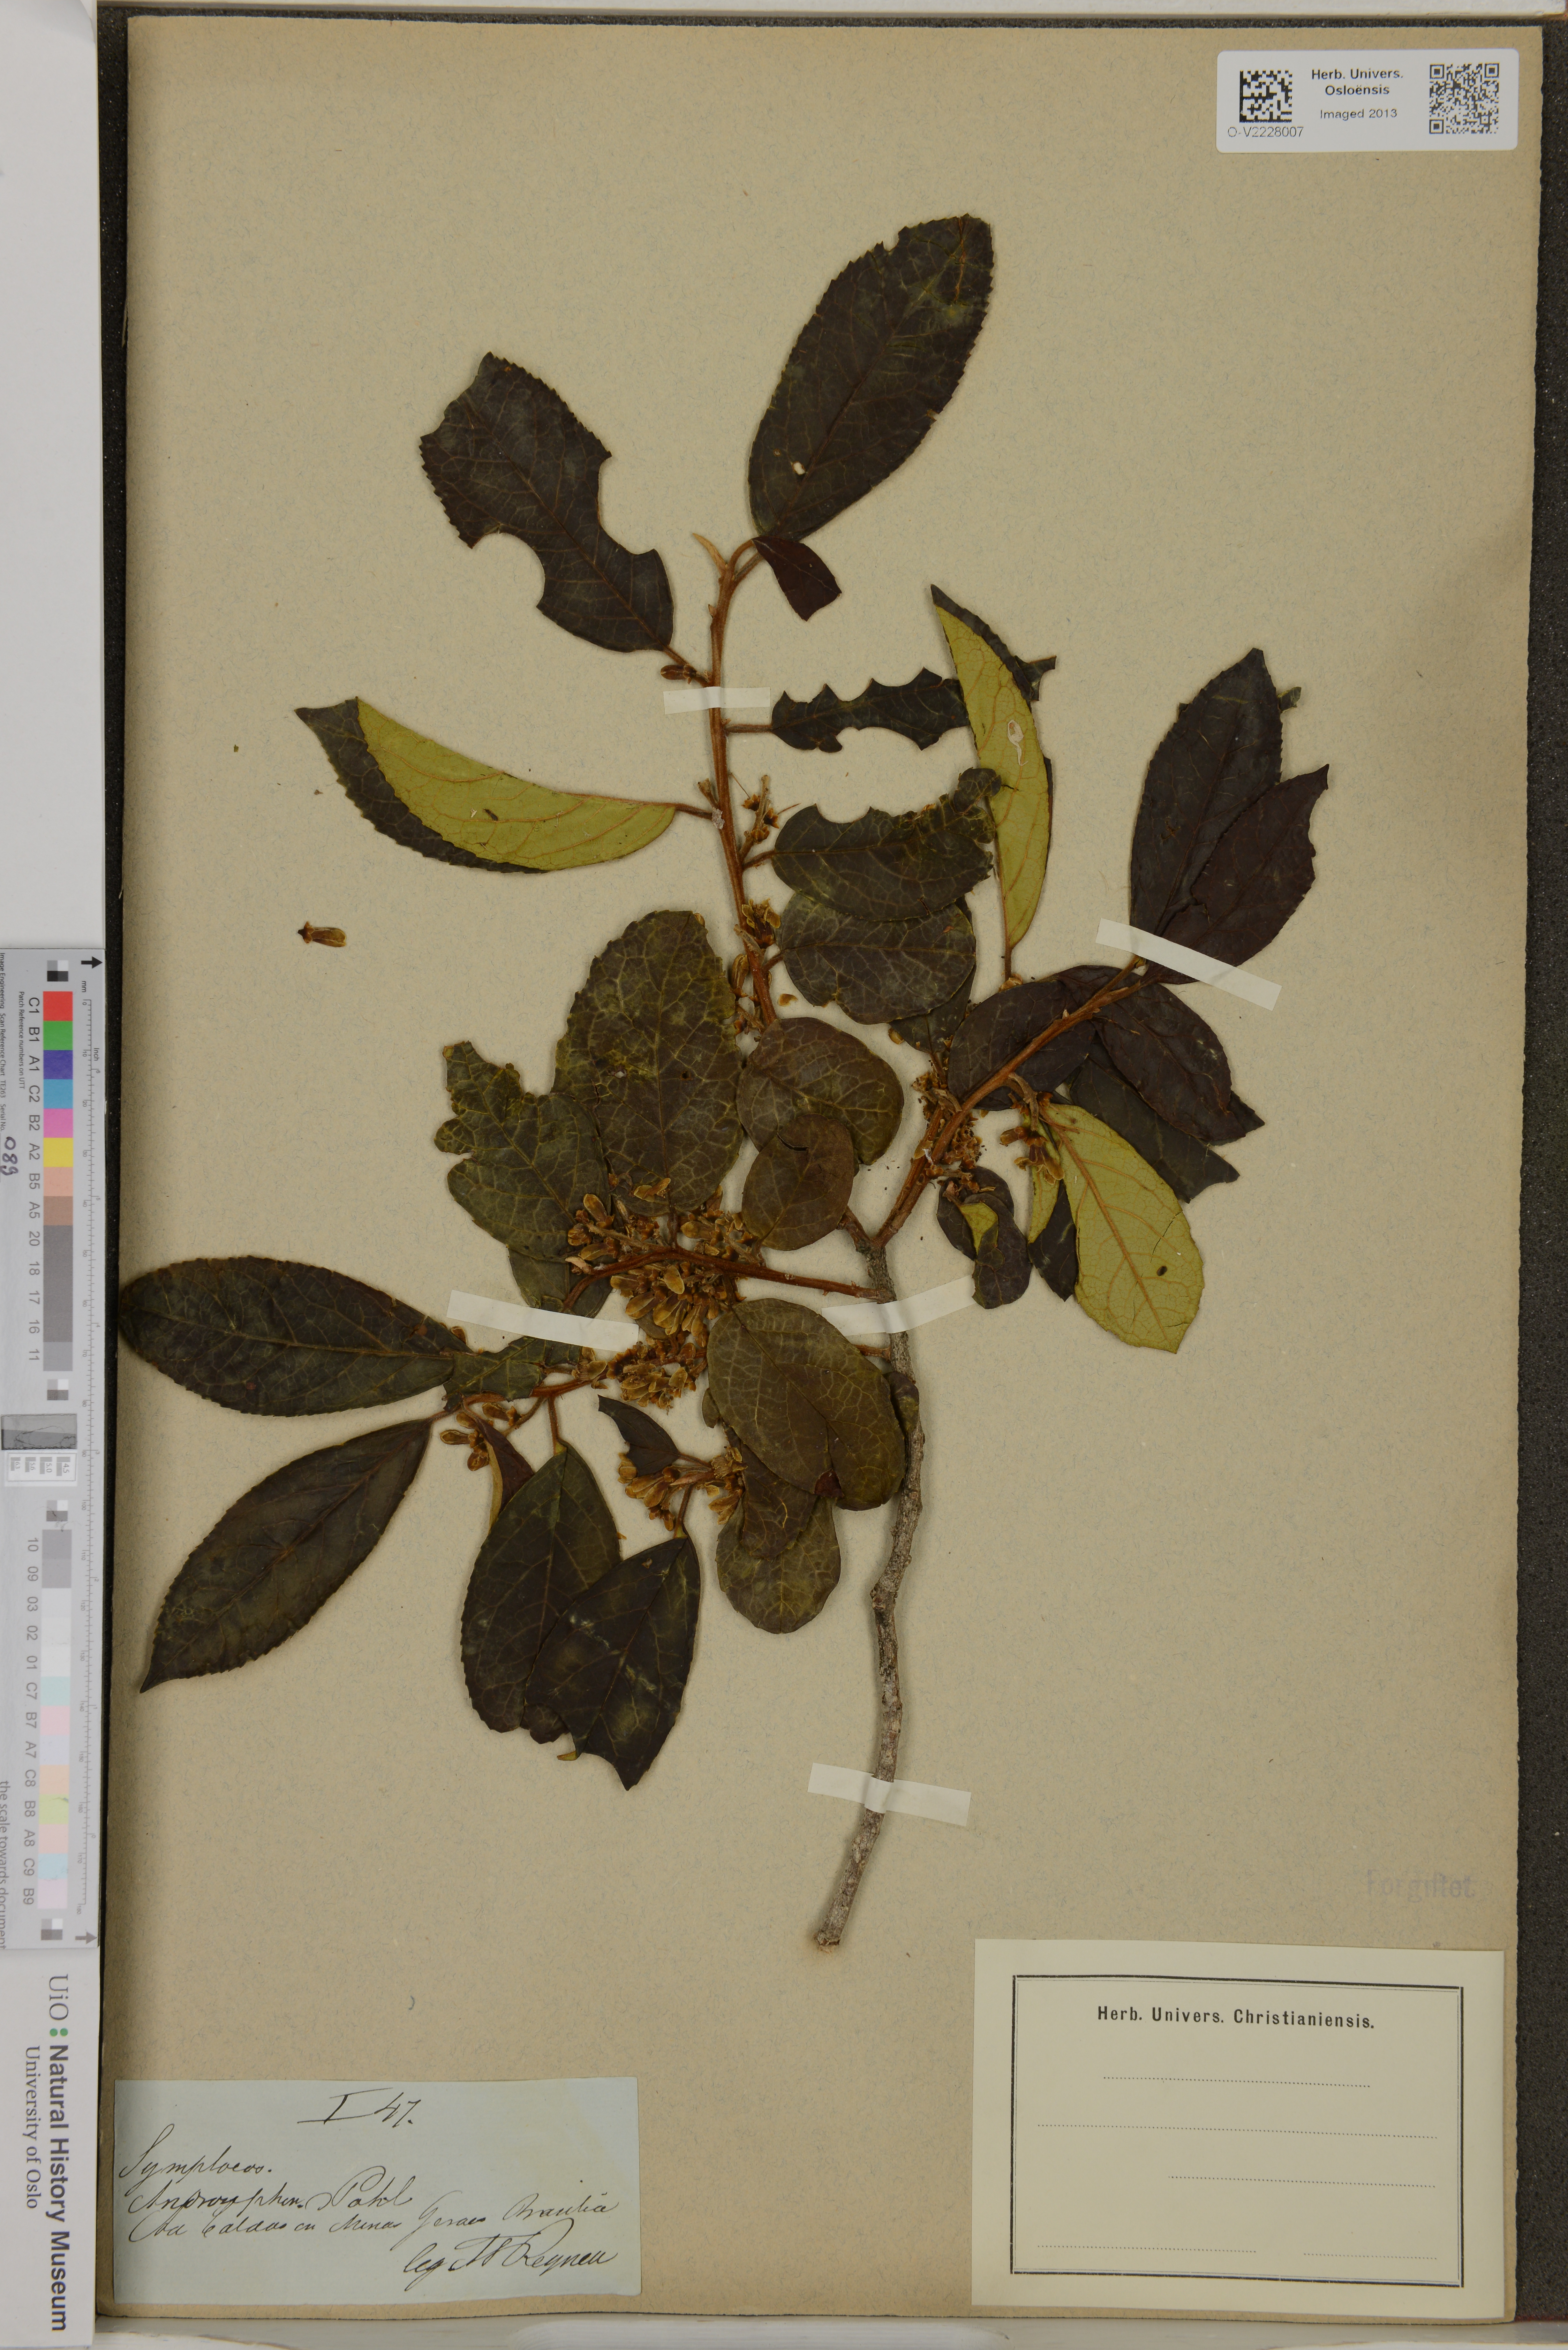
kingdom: Plantae
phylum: Tracheophyta
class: Magnoliopsida
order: Ericales
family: Symplocaceae
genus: Symplocos
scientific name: Symplocos
